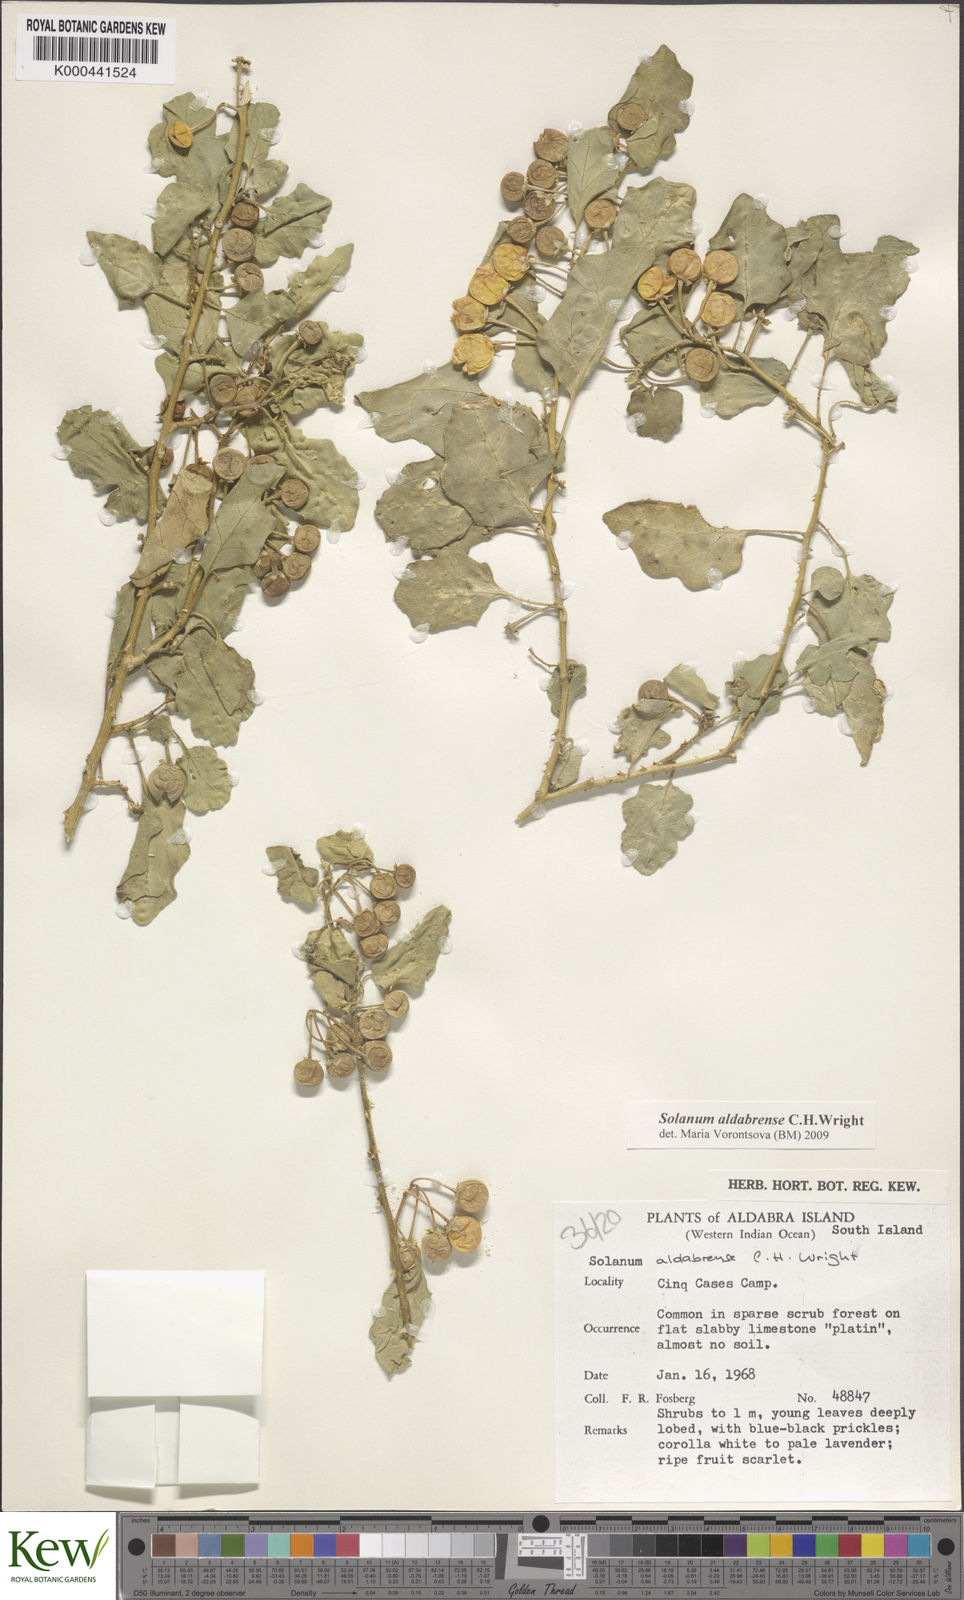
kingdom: Plantae
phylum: Tracheophyta
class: Magnoliopsida
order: Solanales
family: Solanaceae
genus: Solanum
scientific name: Solanum aldabrense
